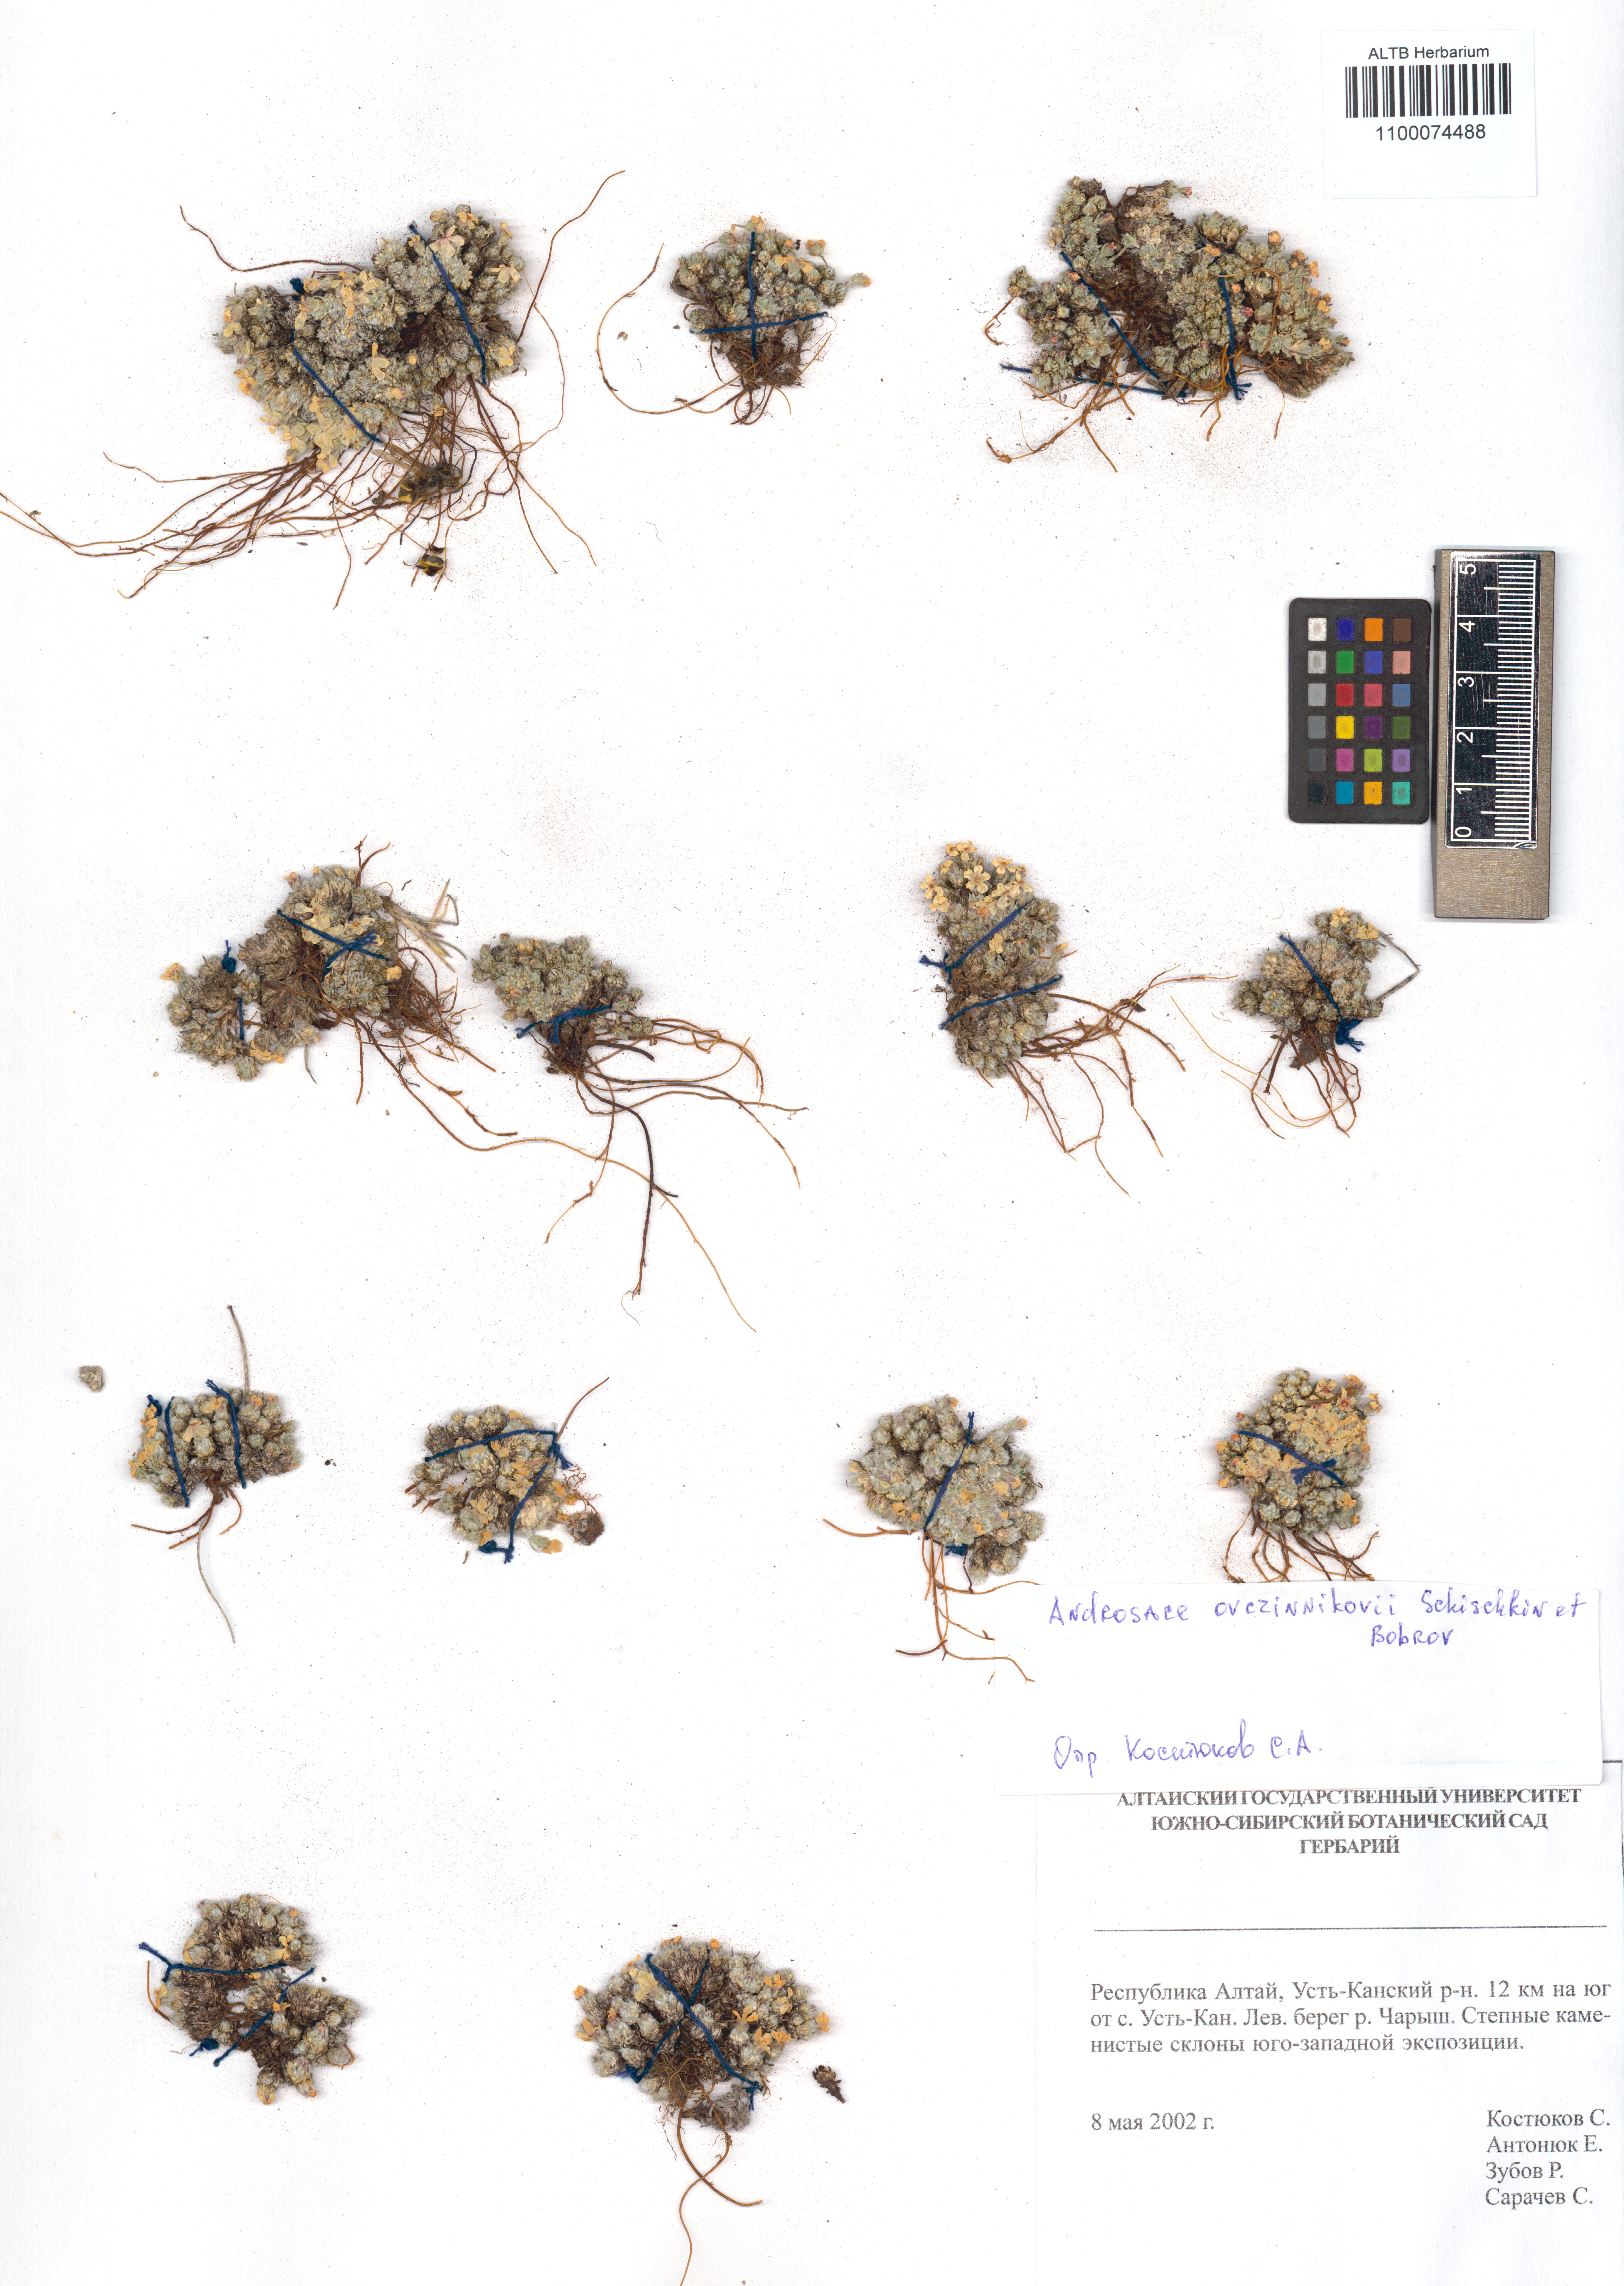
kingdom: Plantae
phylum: Tracheophyta
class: Magnoliopsida
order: Ericales
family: Primulaceae
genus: Androsace
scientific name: Androsace ovczinnikovii
